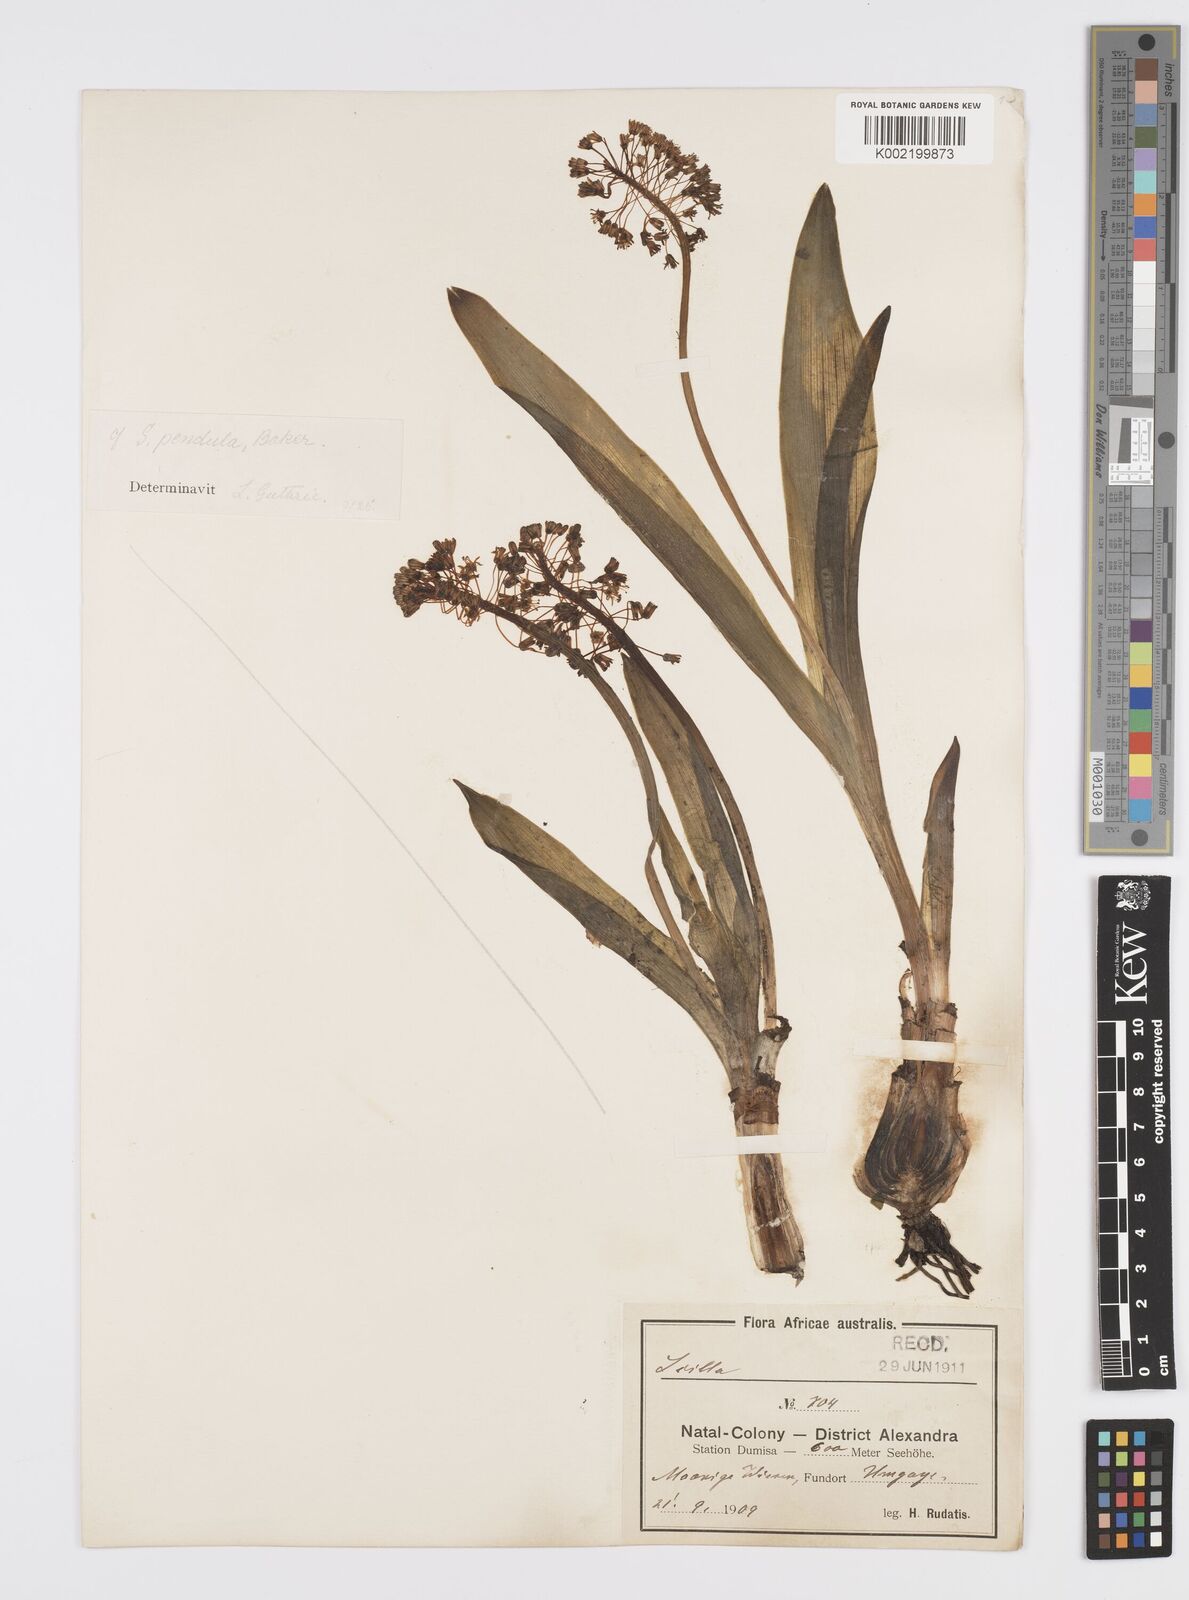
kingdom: Plantae
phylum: Tracheophyta
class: Liliopsida
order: Asparagales
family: Asparagaceae
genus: Ledebouria
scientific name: Ledebouria floribunda
